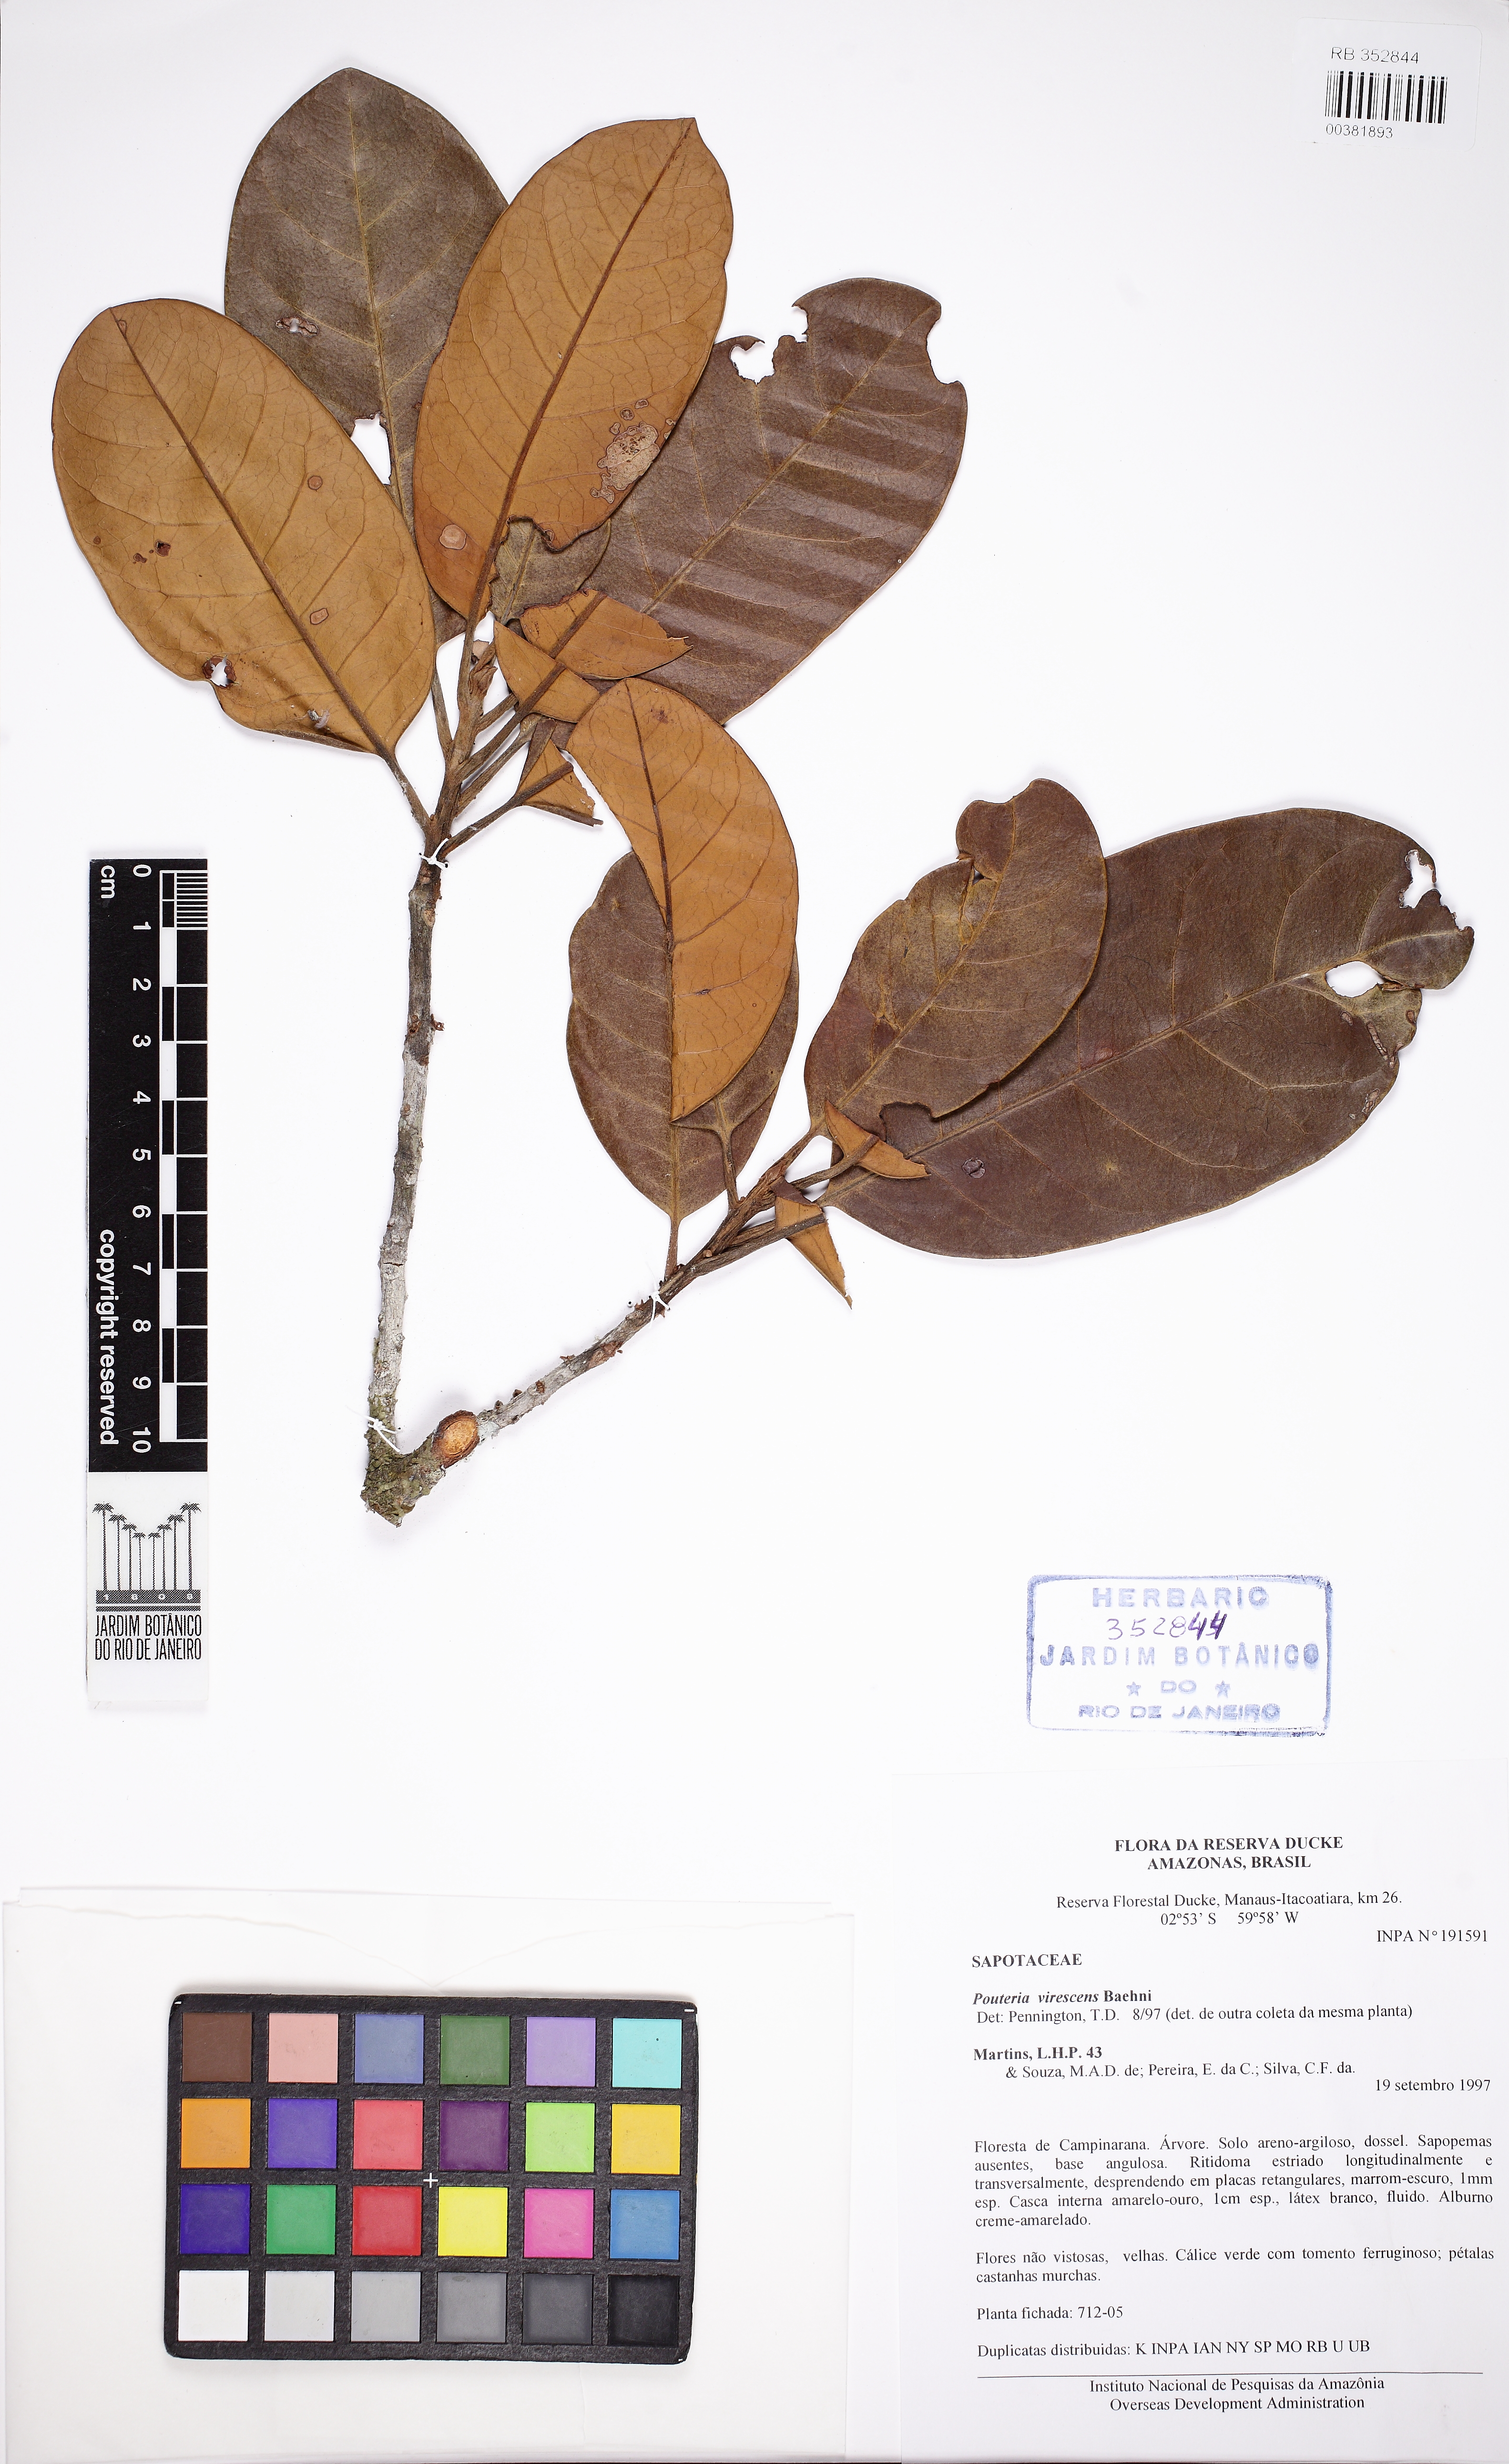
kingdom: Plantae
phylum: Tracheophyta
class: Magnoliopsida
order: Ericales
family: Sapotaceae
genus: Pouteria
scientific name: Pouteria virescens
